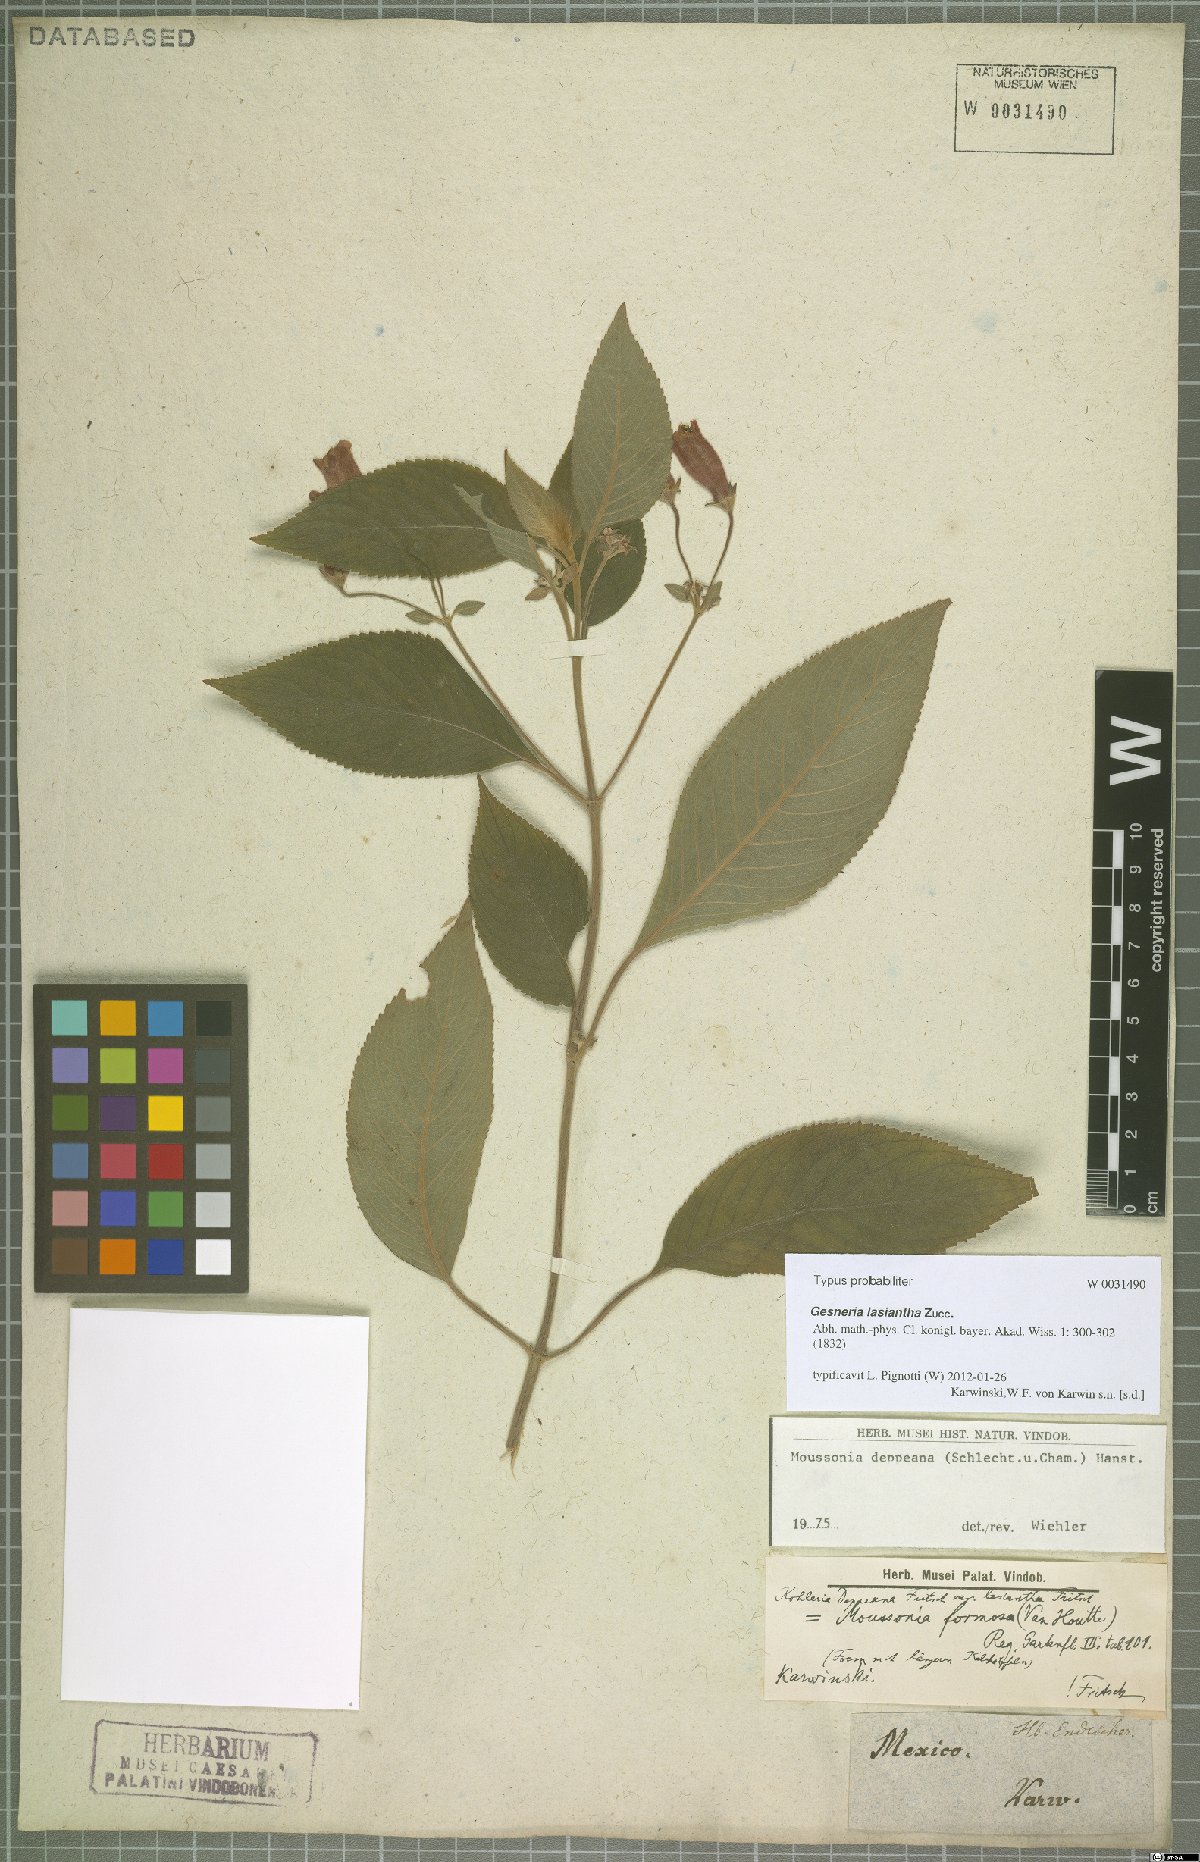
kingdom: Plantae
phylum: Tracheophyta
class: Magnoliopsida
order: Lamiales
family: Gesneriaceae
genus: Moussonia
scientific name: Moussonia deppeana
